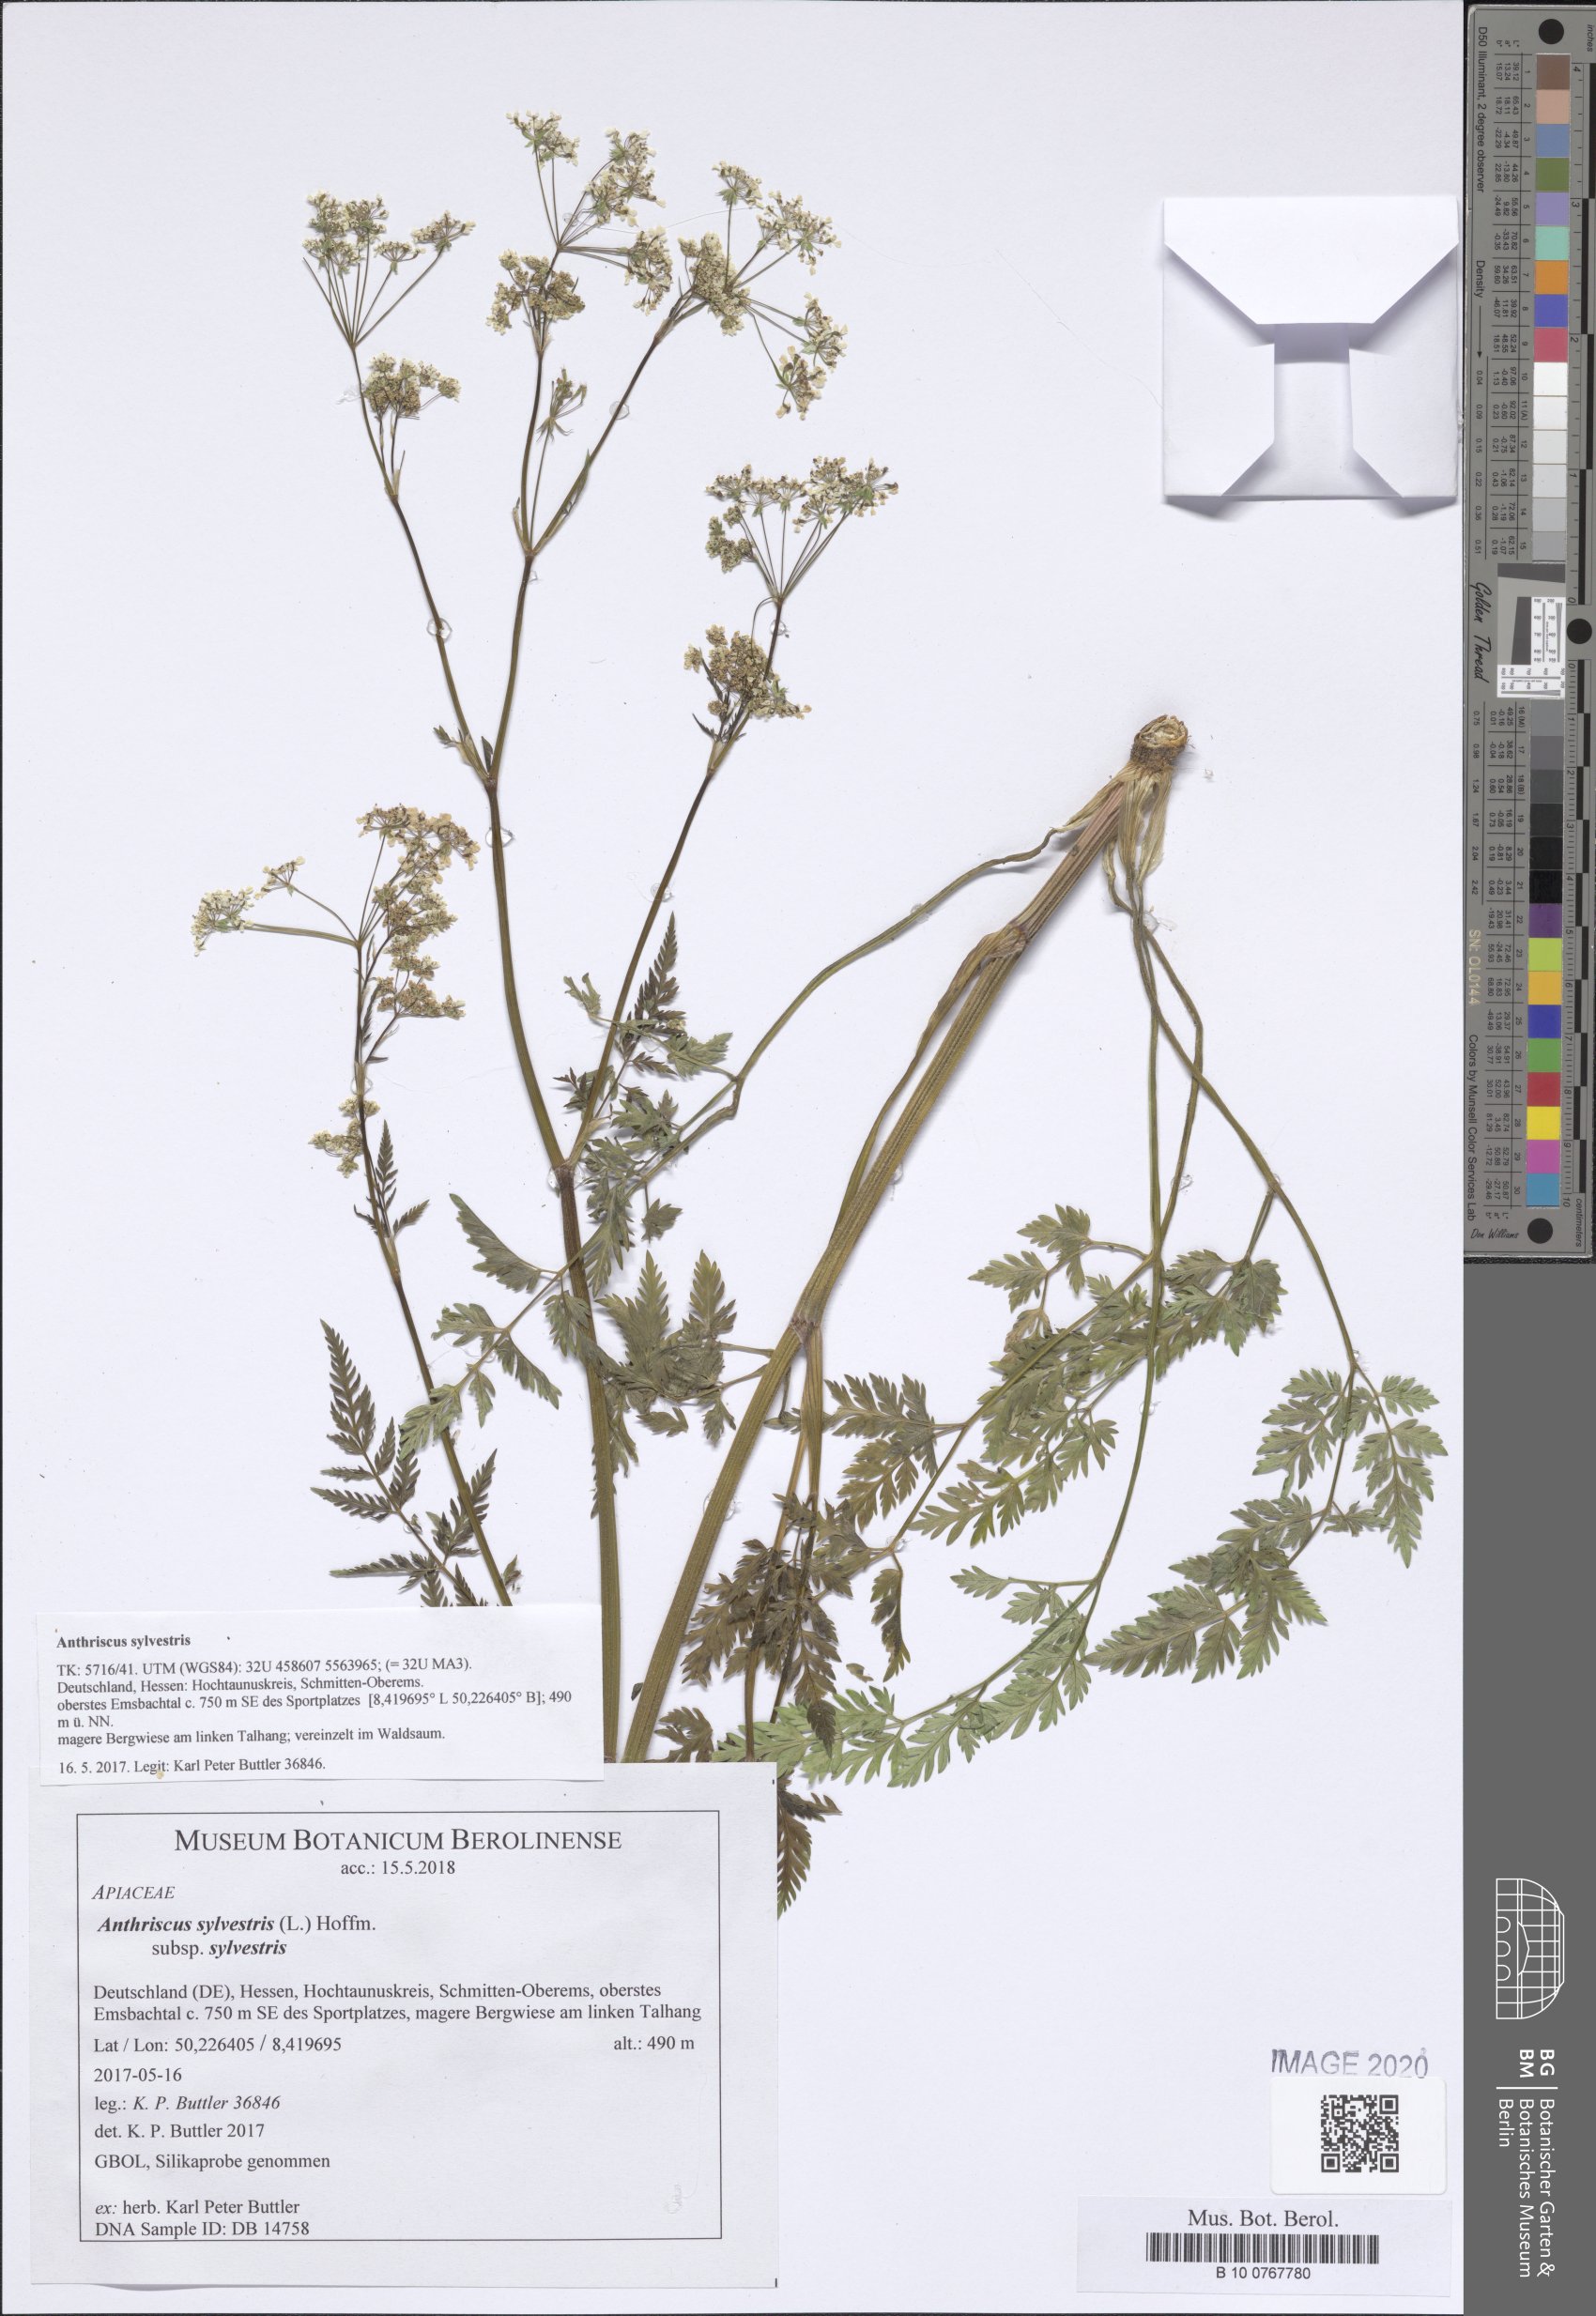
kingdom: Plantae
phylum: Tracheophyta
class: Magnoliopsida
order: Apiales
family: Apiaceae
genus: Anthriscus
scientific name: Anthriscus sylvestris
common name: Cow parsley
